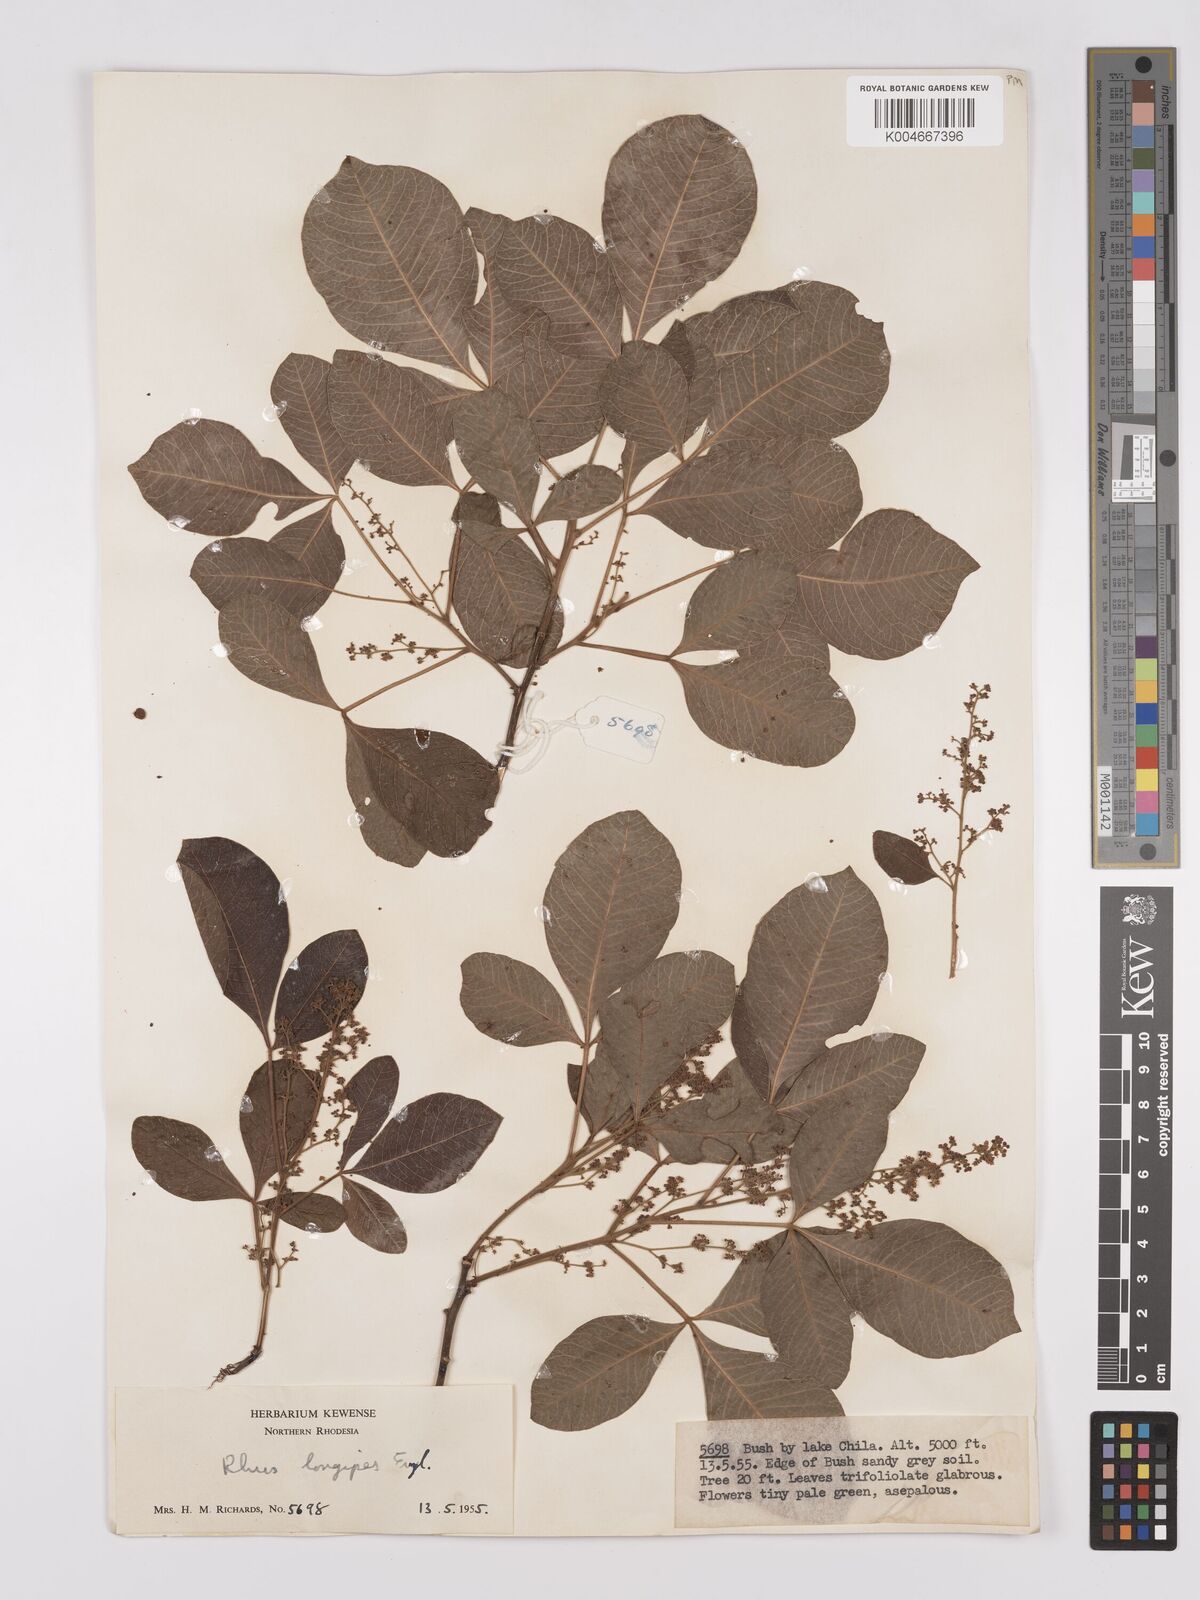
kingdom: Plantae
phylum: Tracheophyta
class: Magnoliopsida
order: Sapindales
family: Anacardiaceae
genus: Searsia
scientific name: Searsia longipes
